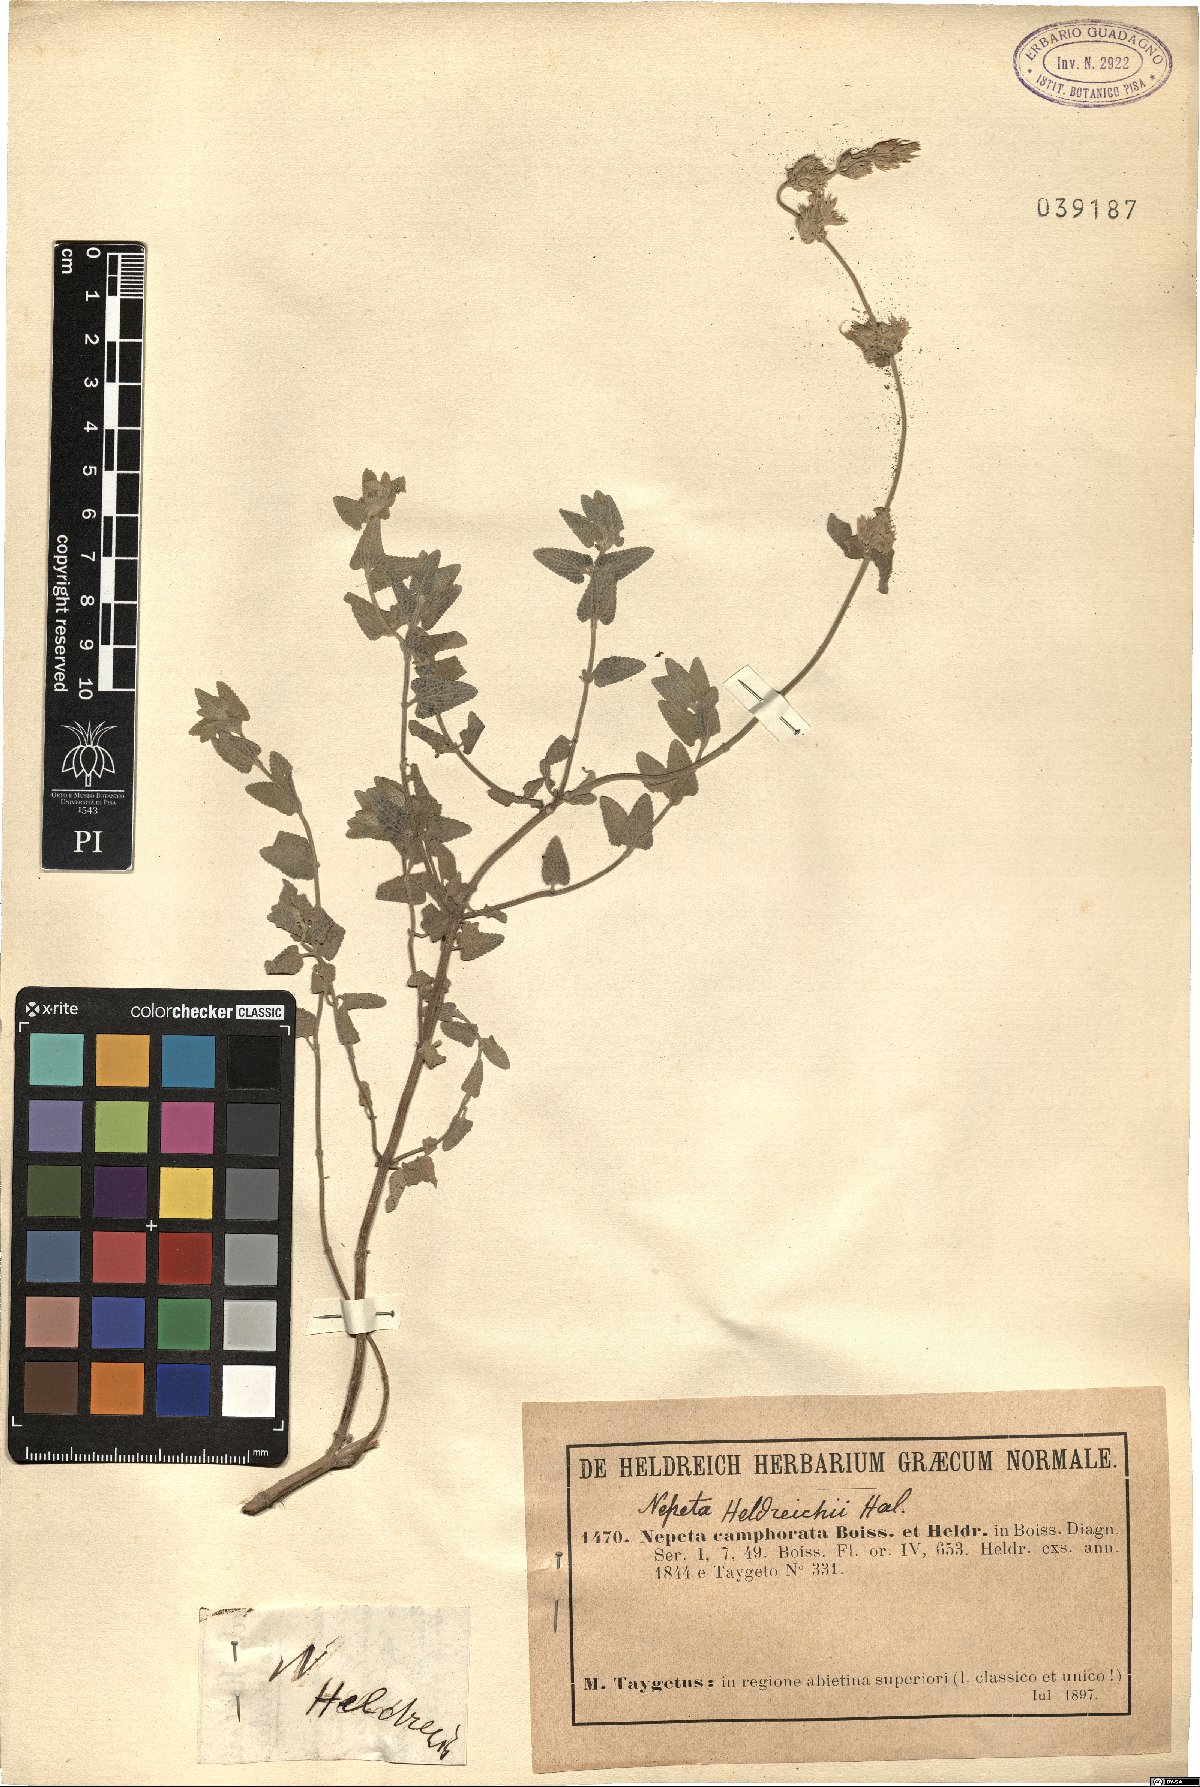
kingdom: Plantae
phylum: Tracheophyta
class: Magnoliopsida
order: Lamiales
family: Lamiaceae
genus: Nepeta
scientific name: Nepeta camphorata
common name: Camphor catmint
